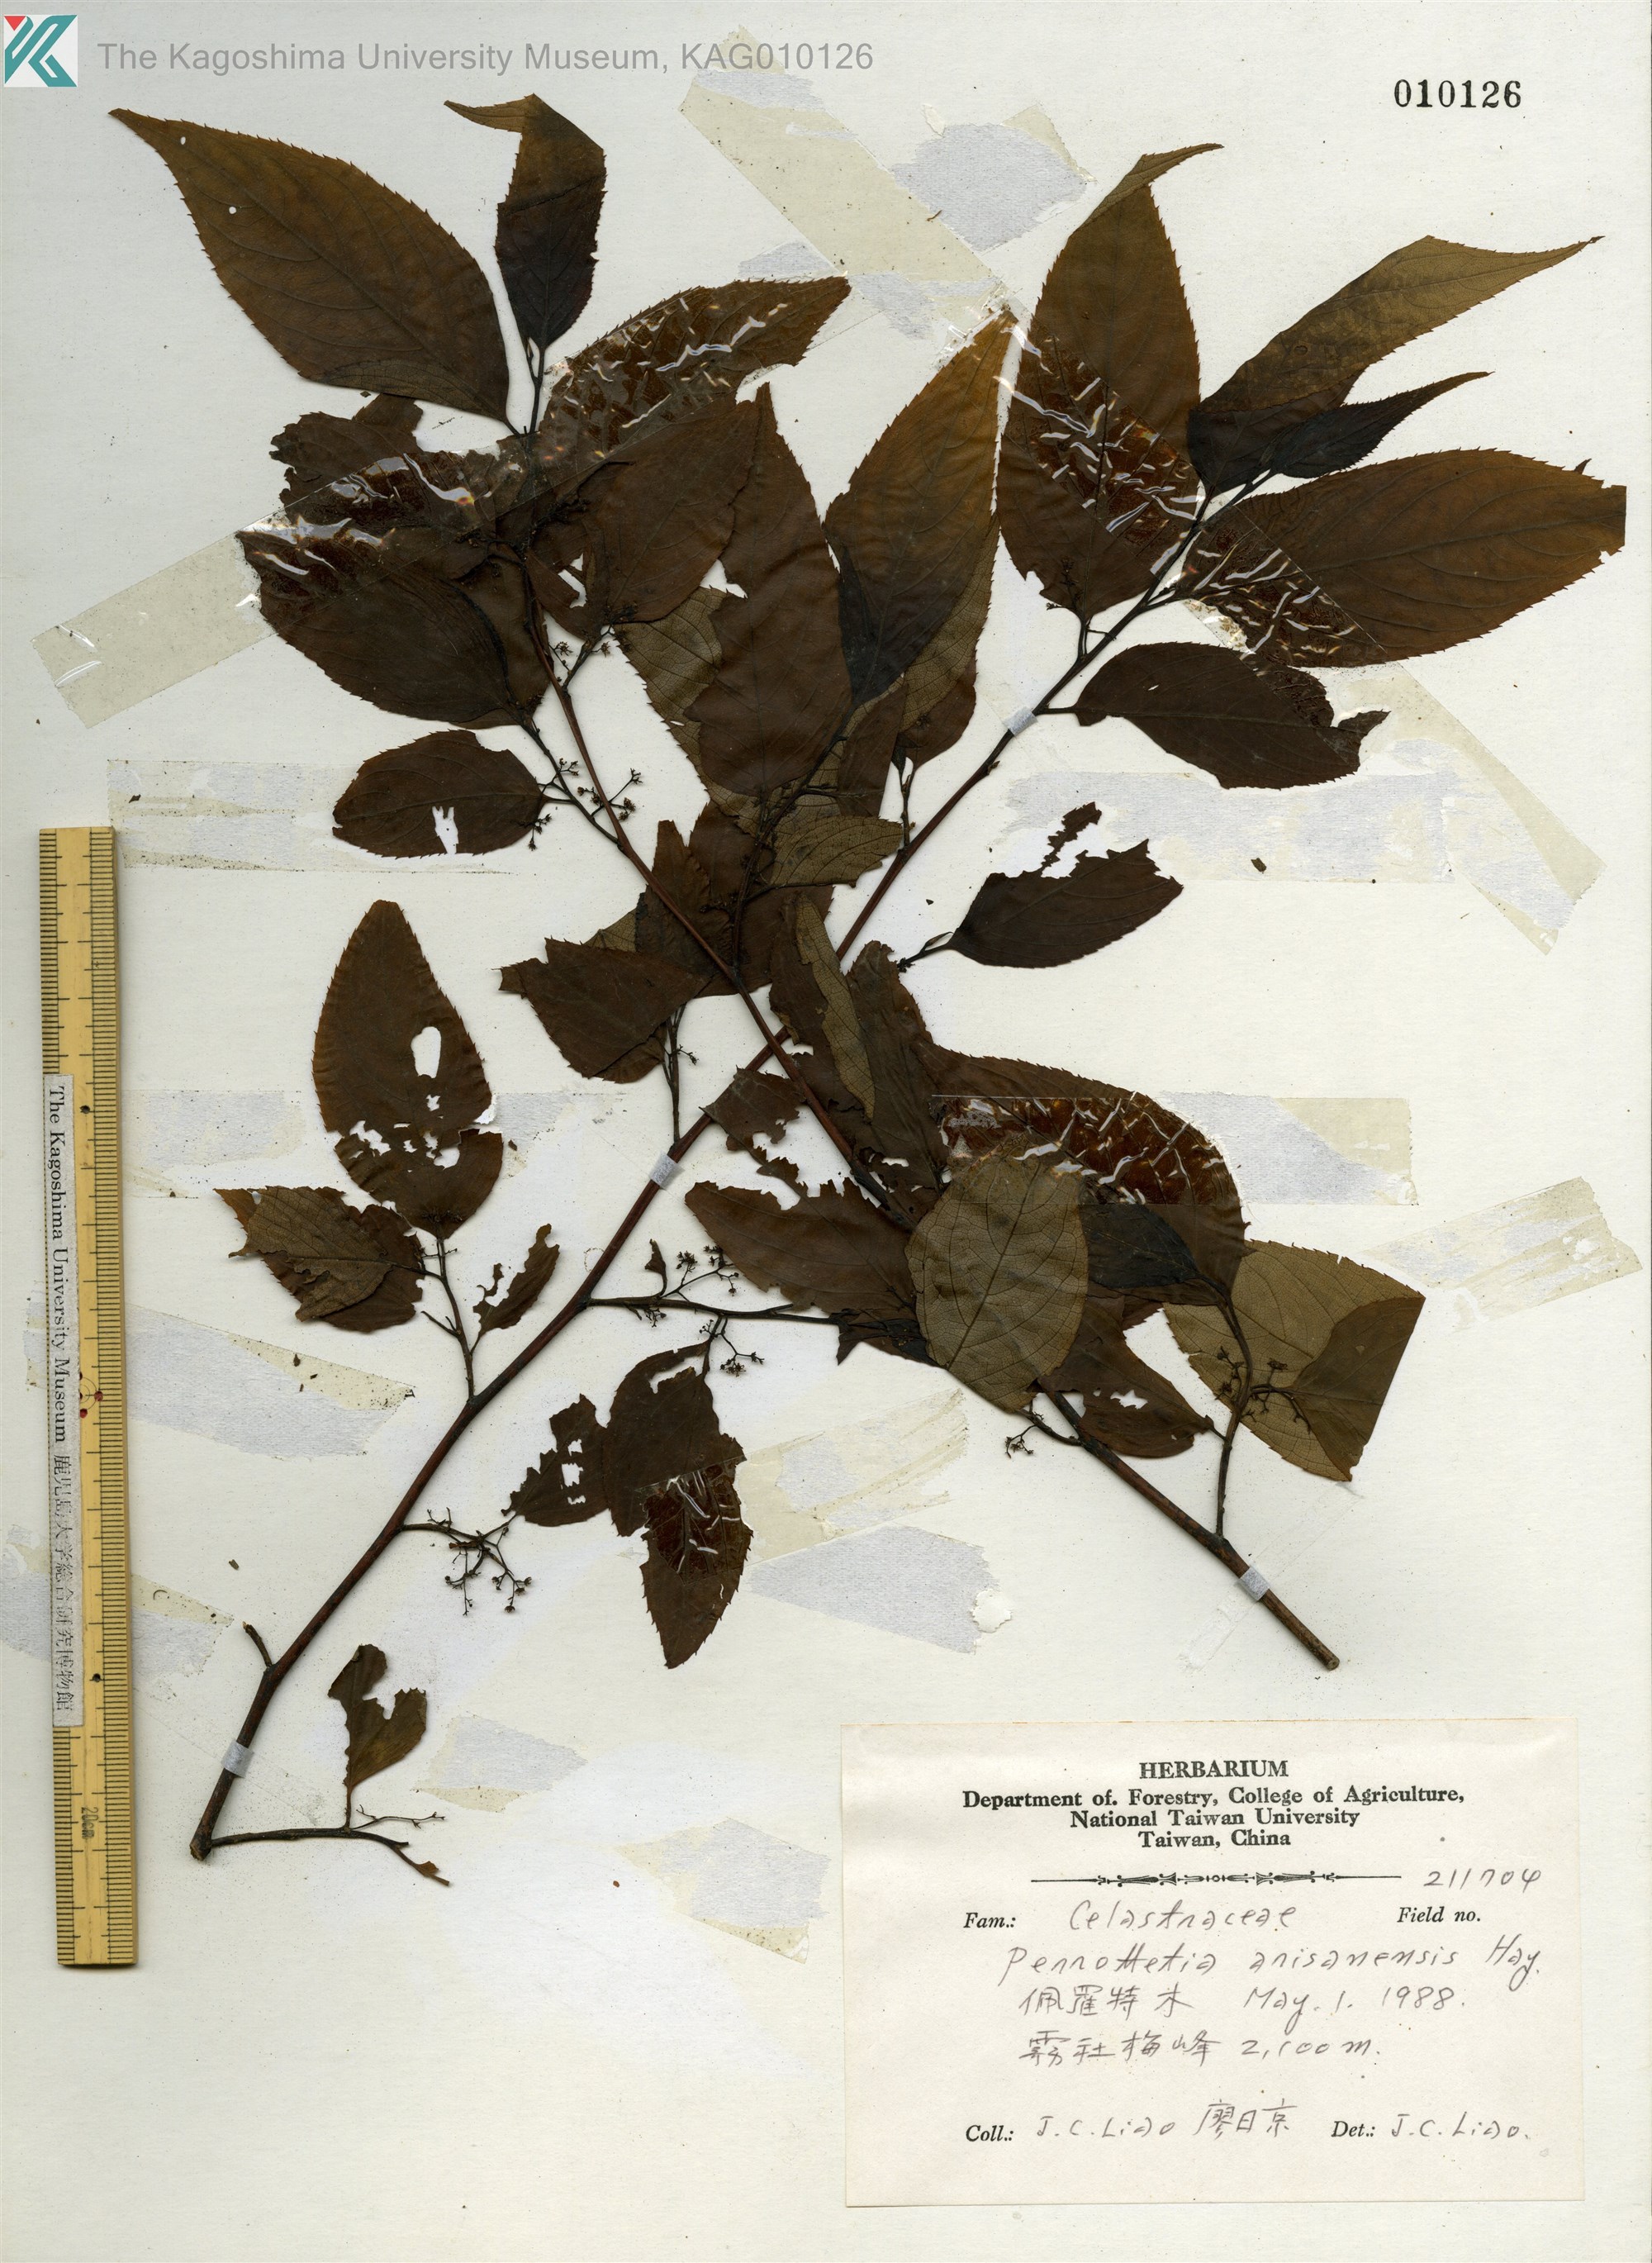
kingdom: Plantae
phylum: Tracheophyta
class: Magnoliopsida
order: Huerteales
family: Dipentodontaceae
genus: Perrottetia
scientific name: Perrottetia arisanensis
